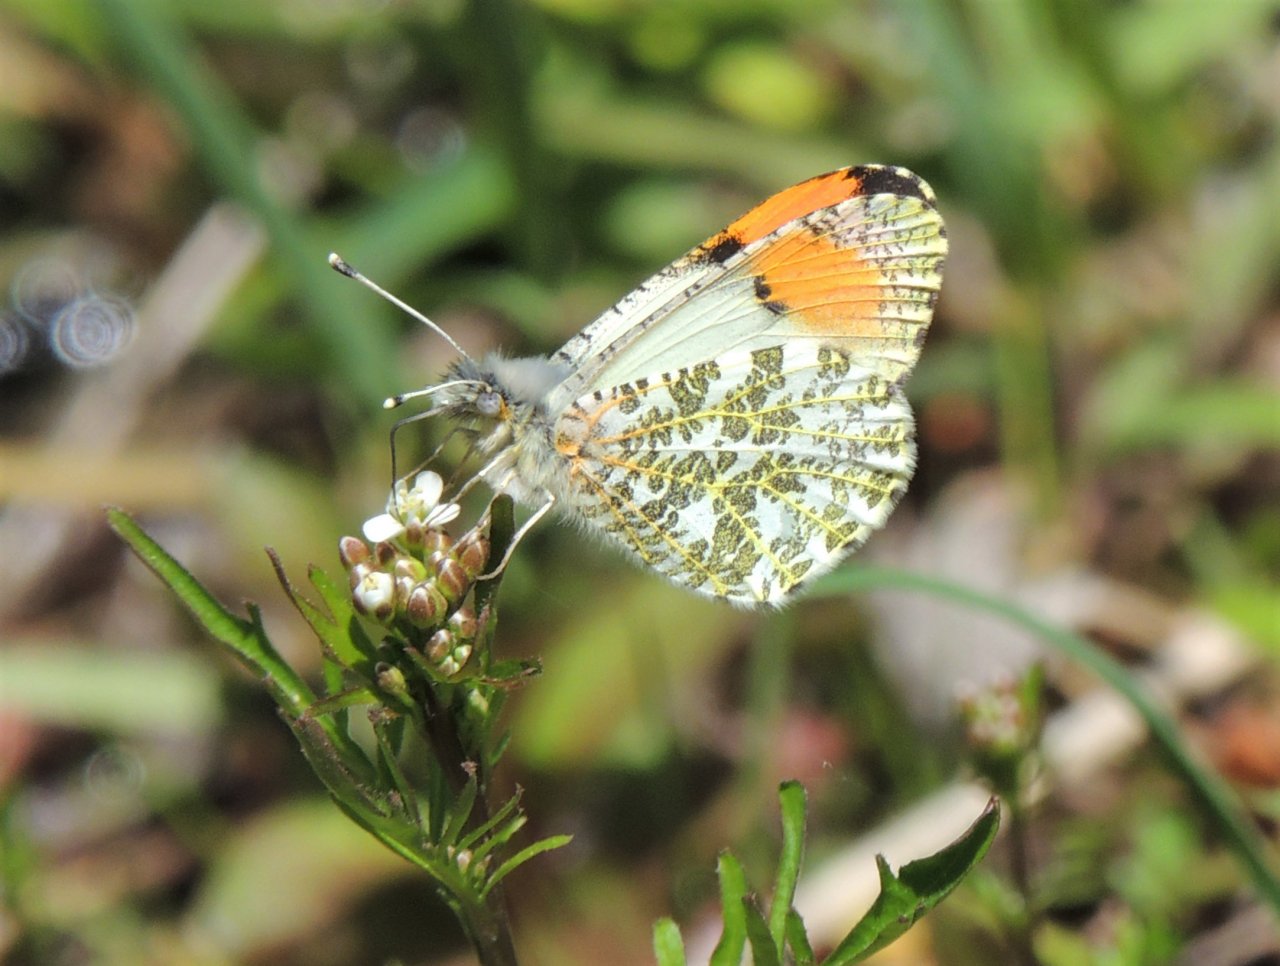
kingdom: Animalia
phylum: Arthropoda
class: Insecta
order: Lepidoptera
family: Pieridae
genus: Anthocharis
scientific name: Anthocharis sara
